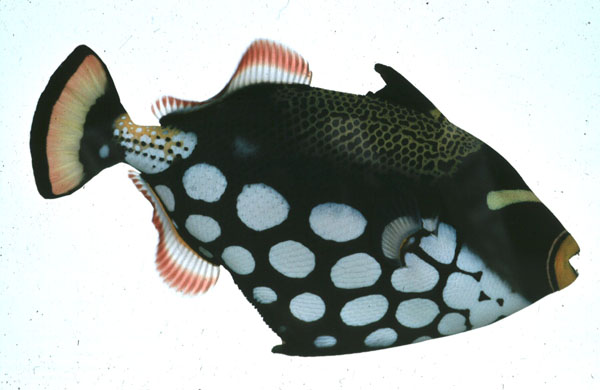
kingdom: Animalia
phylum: Chordata
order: Tetraodontiformes
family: Balistidae
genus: Balistoides
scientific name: Balistoides conspicillum
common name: Clown triggerfish
